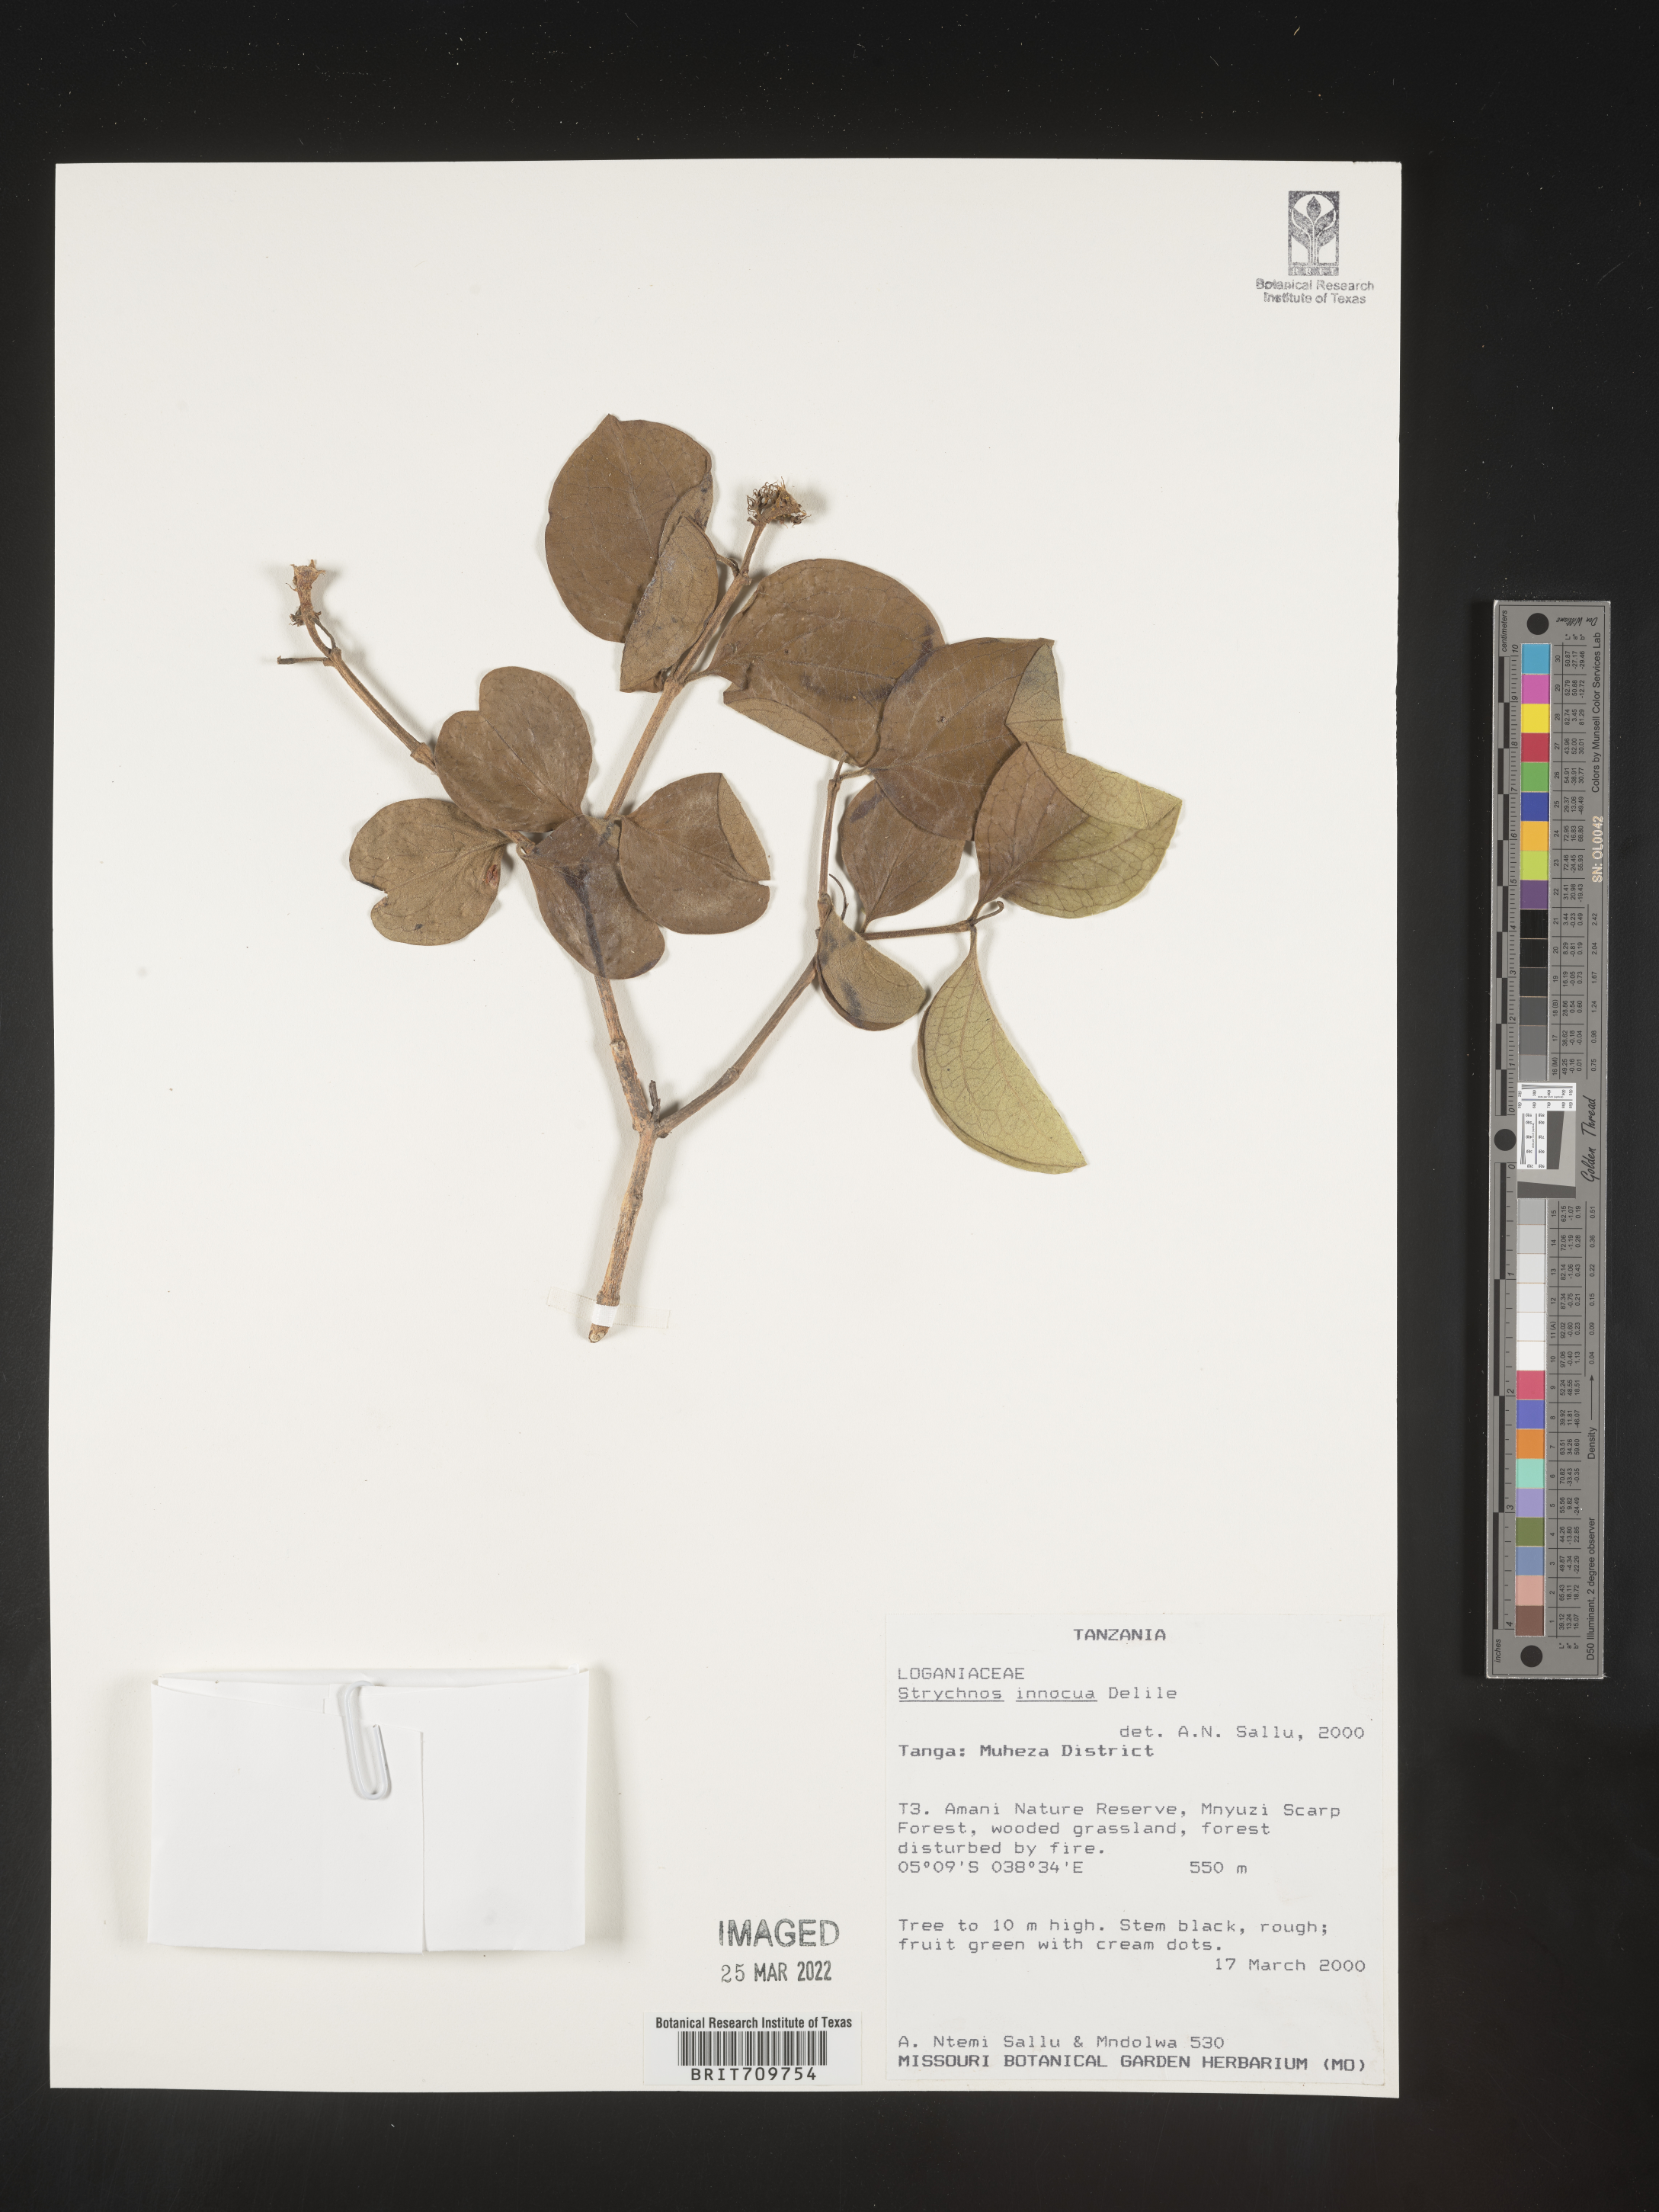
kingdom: Plantae
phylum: Tracheophyta
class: Magnoliopsida
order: Gentianales
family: Loganiaceae
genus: Strychnos
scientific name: Strychnos
